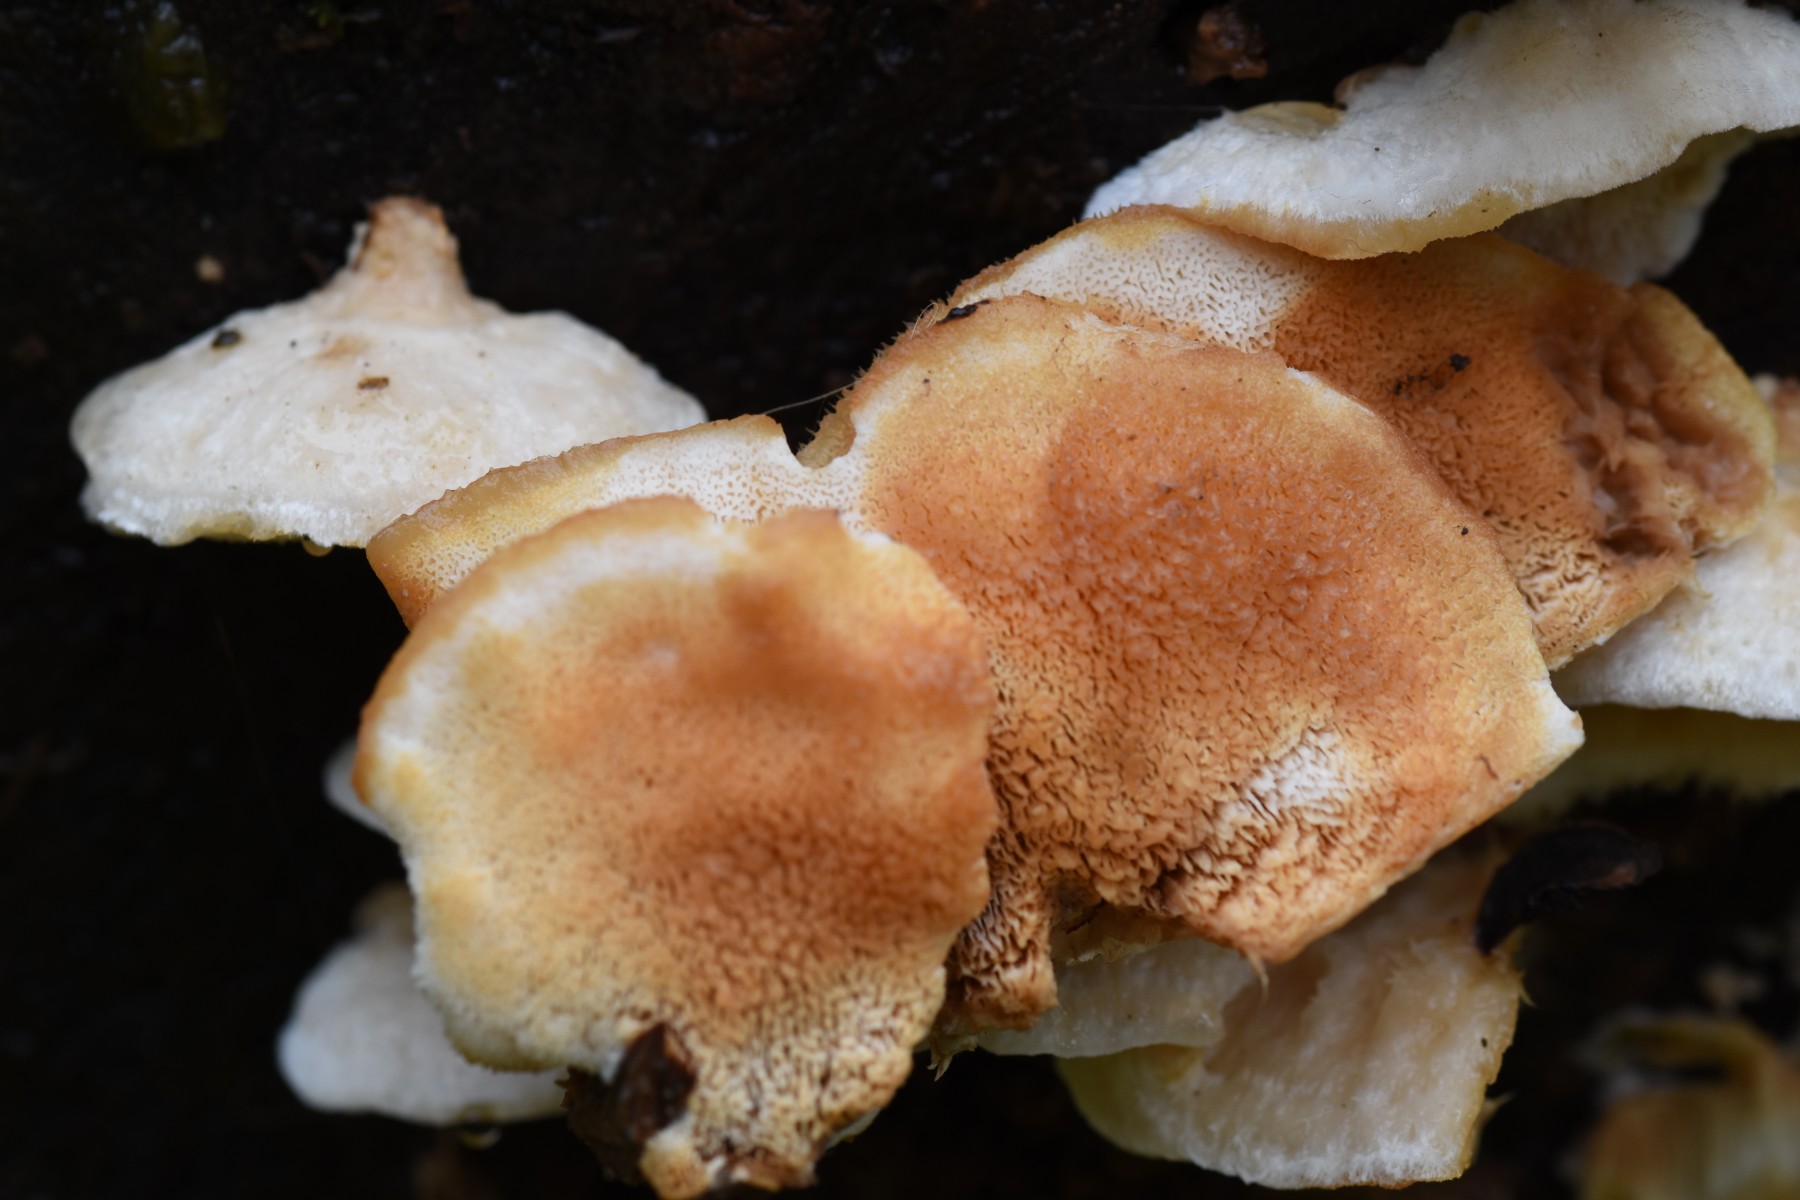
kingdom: Fungi
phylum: Basidiomycota
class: Agaricomycetes
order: Polyporales
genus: Fuscopostia
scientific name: Fuscopostia fragilis
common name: brunende kødporesvamp
